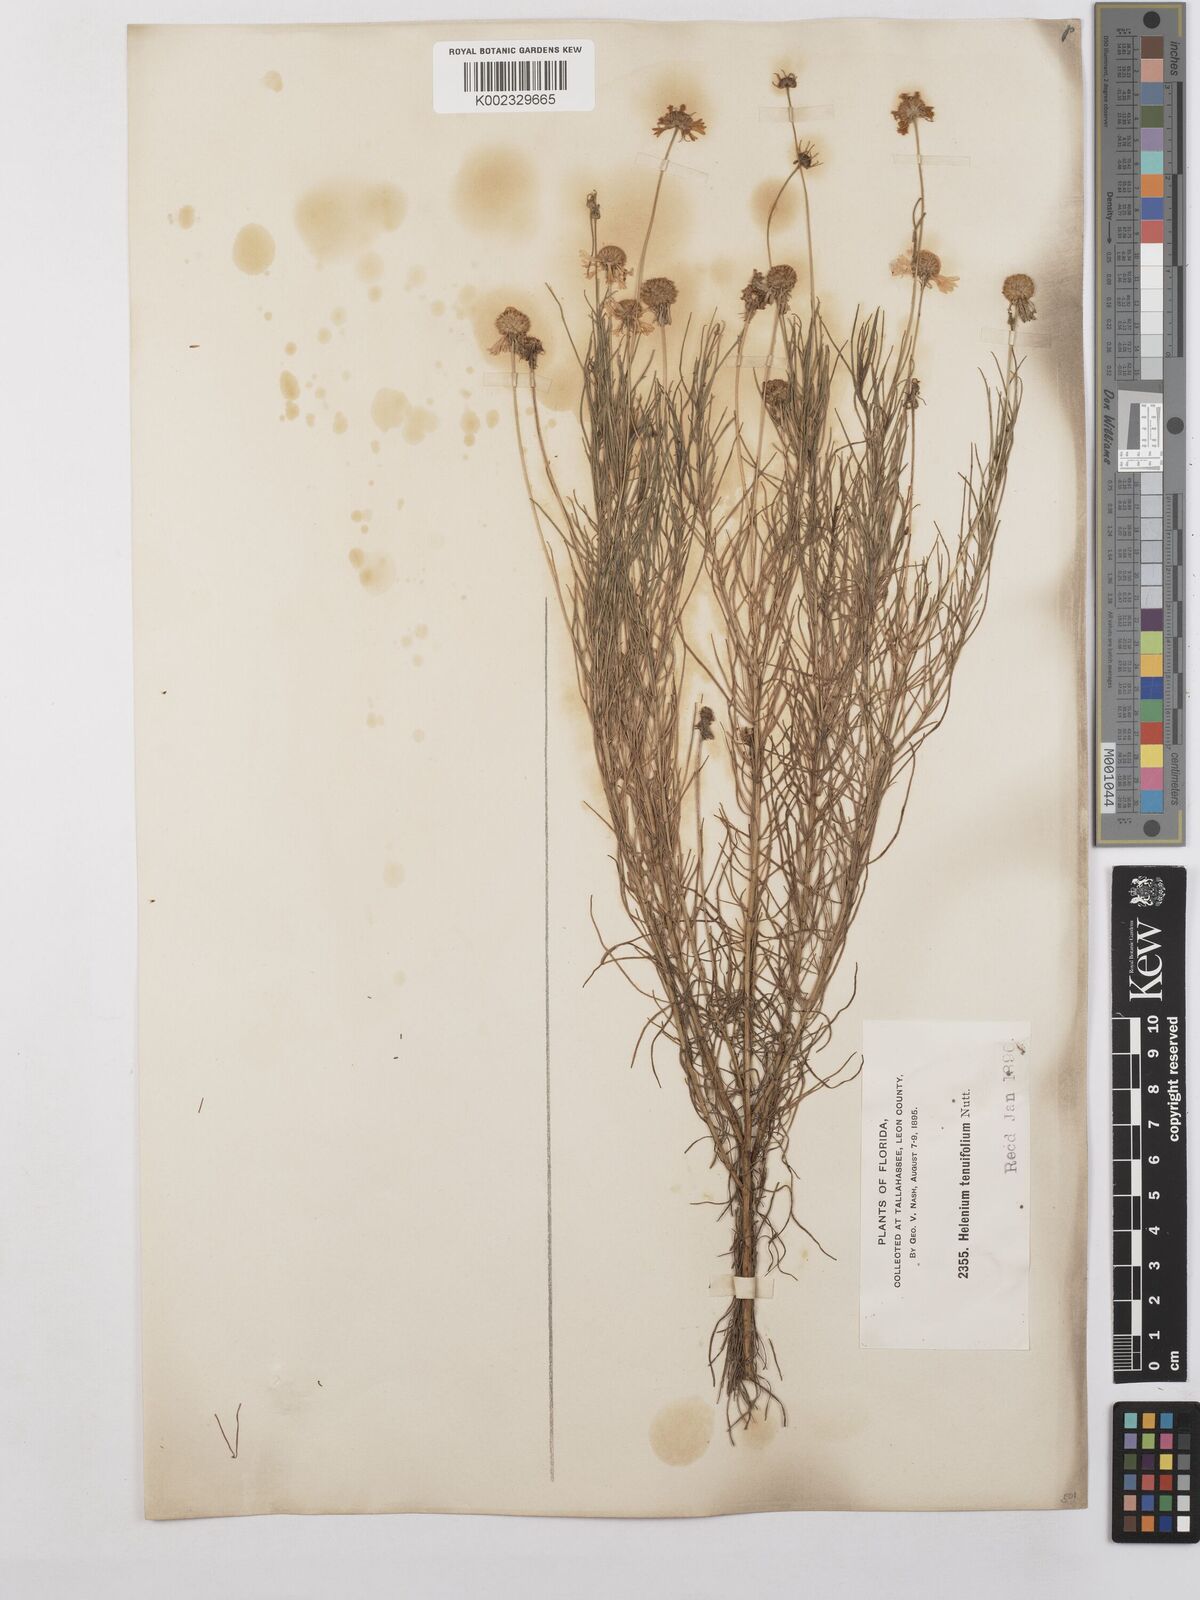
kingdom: Plantae
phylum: Tracheophyta
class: Magnoliopsida
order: Asterales
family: Asteraceae
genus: Helenium
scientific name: Helenium amarum
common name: Bitter sneezeweed
